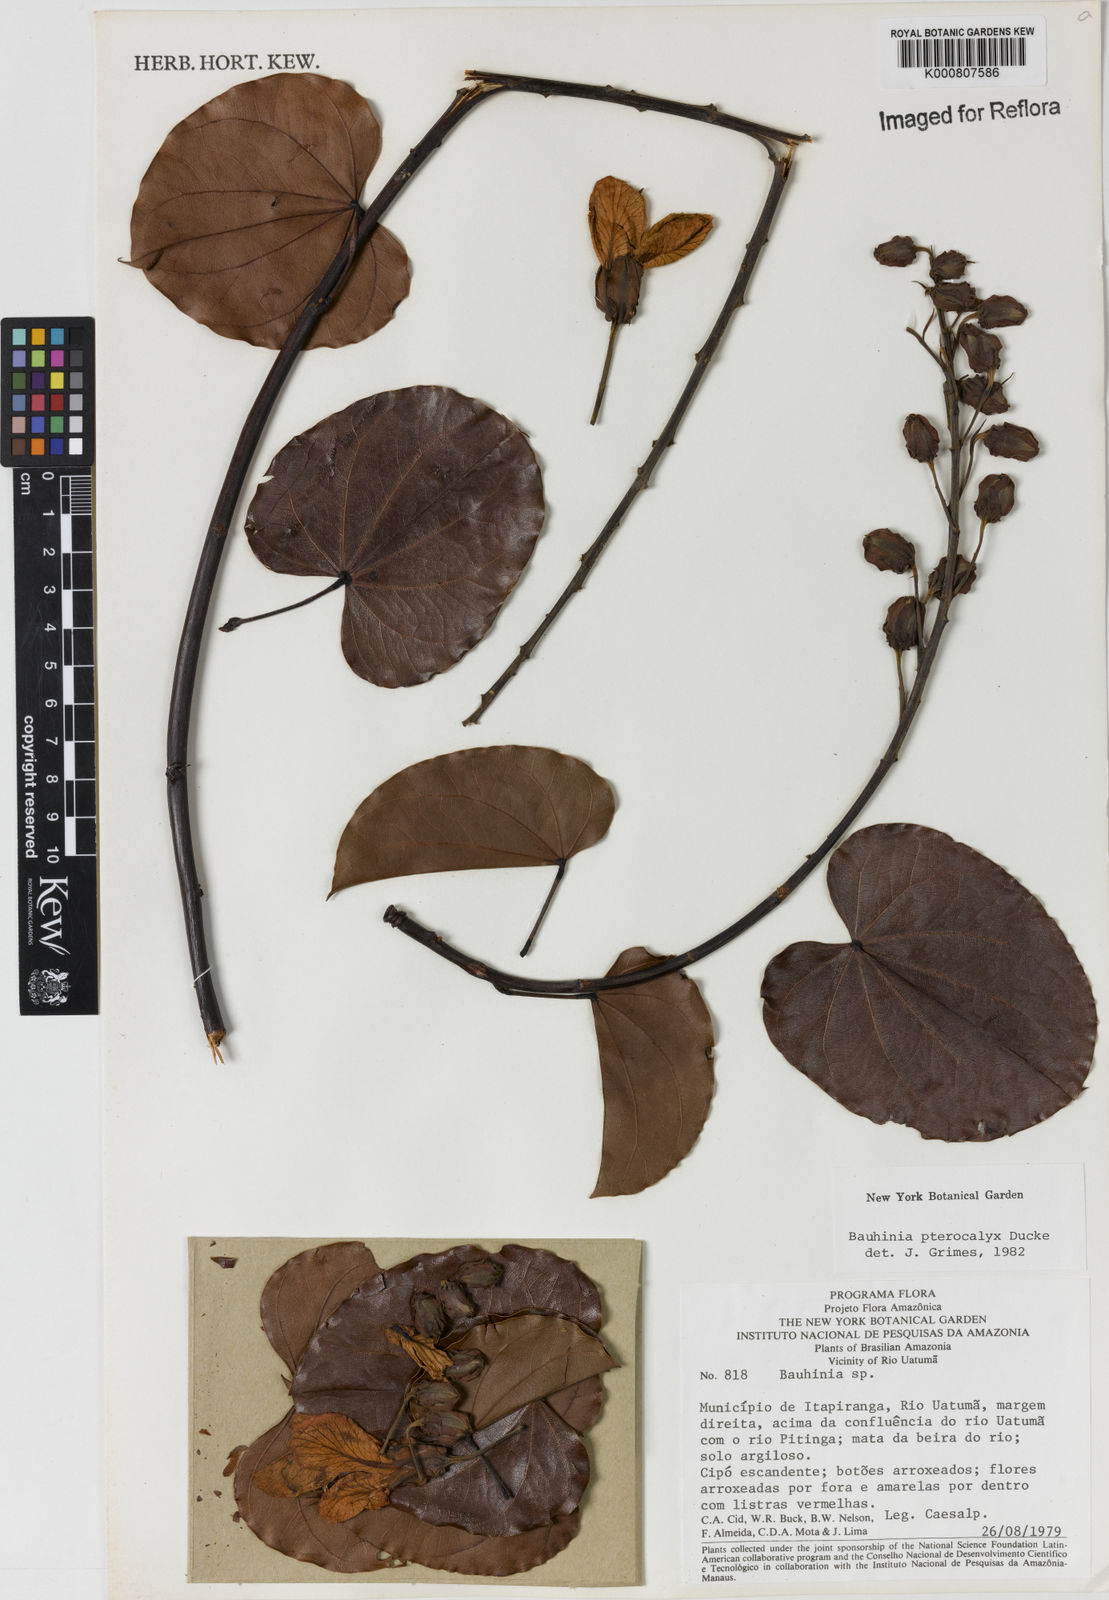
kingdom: Plantae
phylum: Tracheophyta
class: Magnoliopsida
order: Fabales
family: Fabaceae
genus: Schnella
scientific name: Schnella pterocalyx
